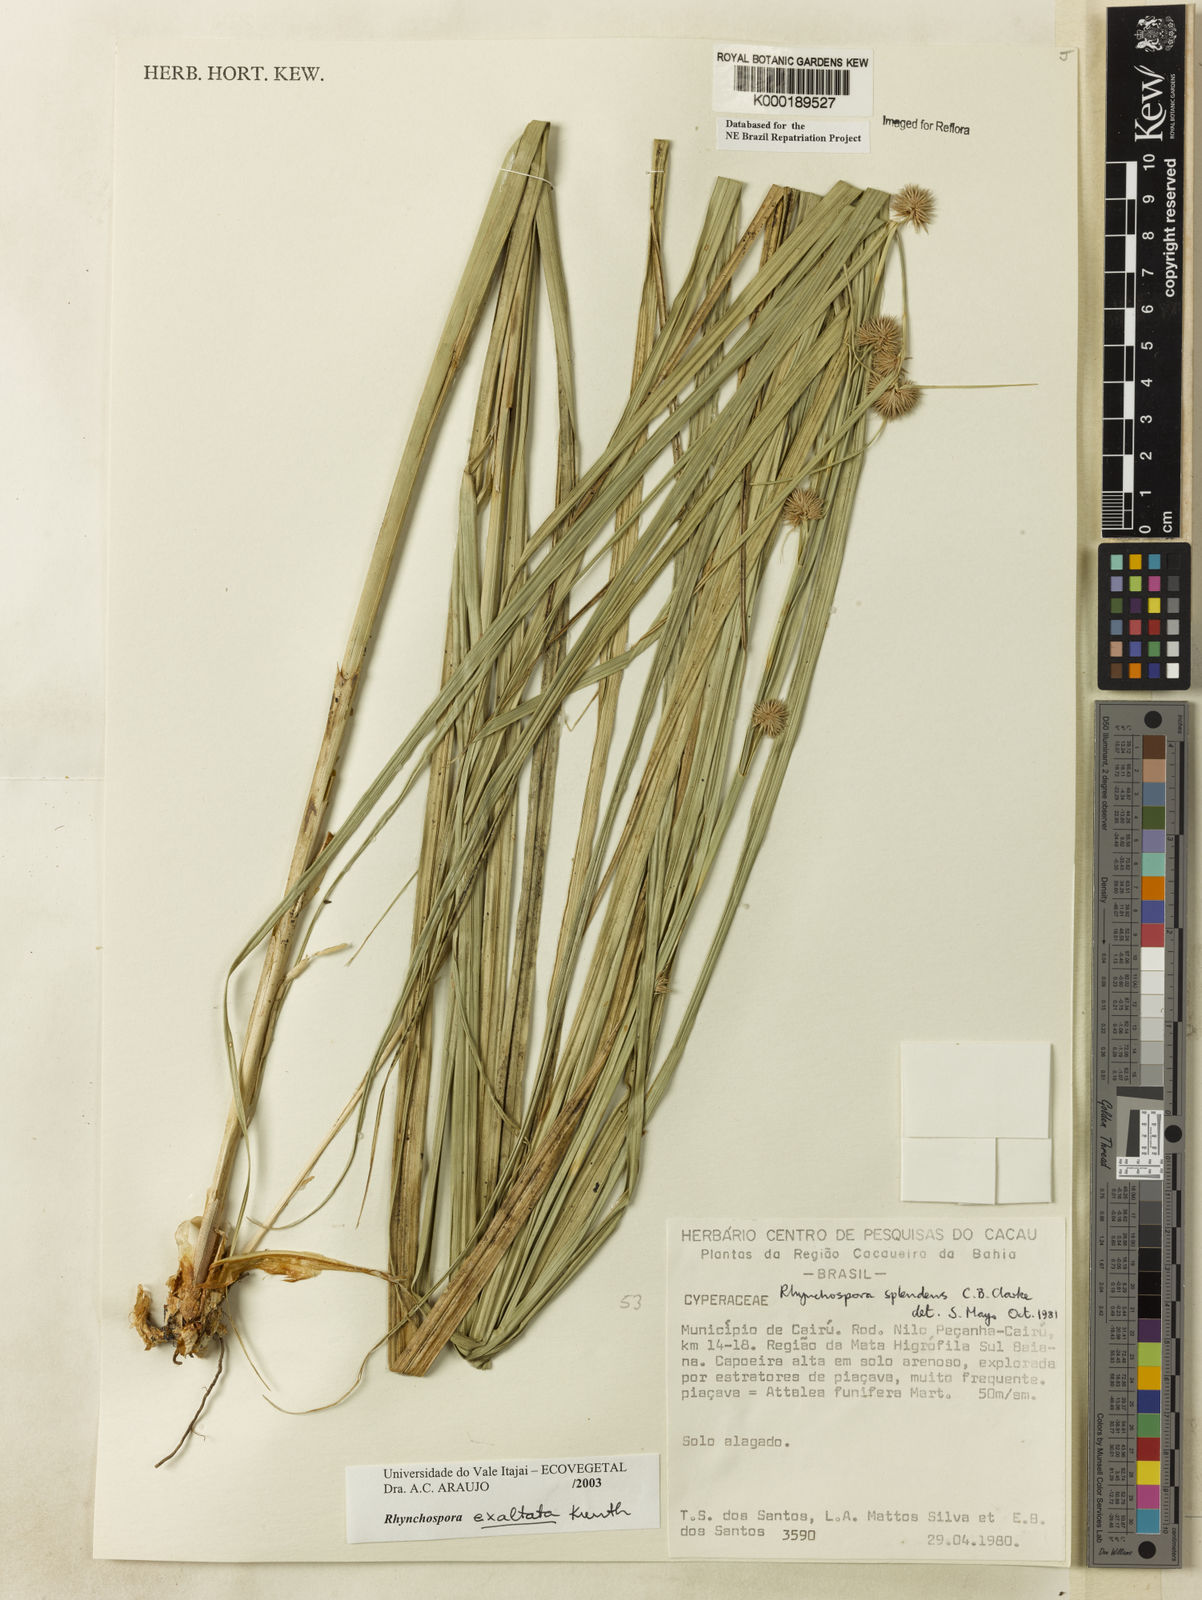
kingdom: Plantae
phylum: Tracheophyta
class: Liliopsida
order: Poales
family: Cyperaceae
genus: Rhynchospora
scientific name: Rhynchospora exaltata
